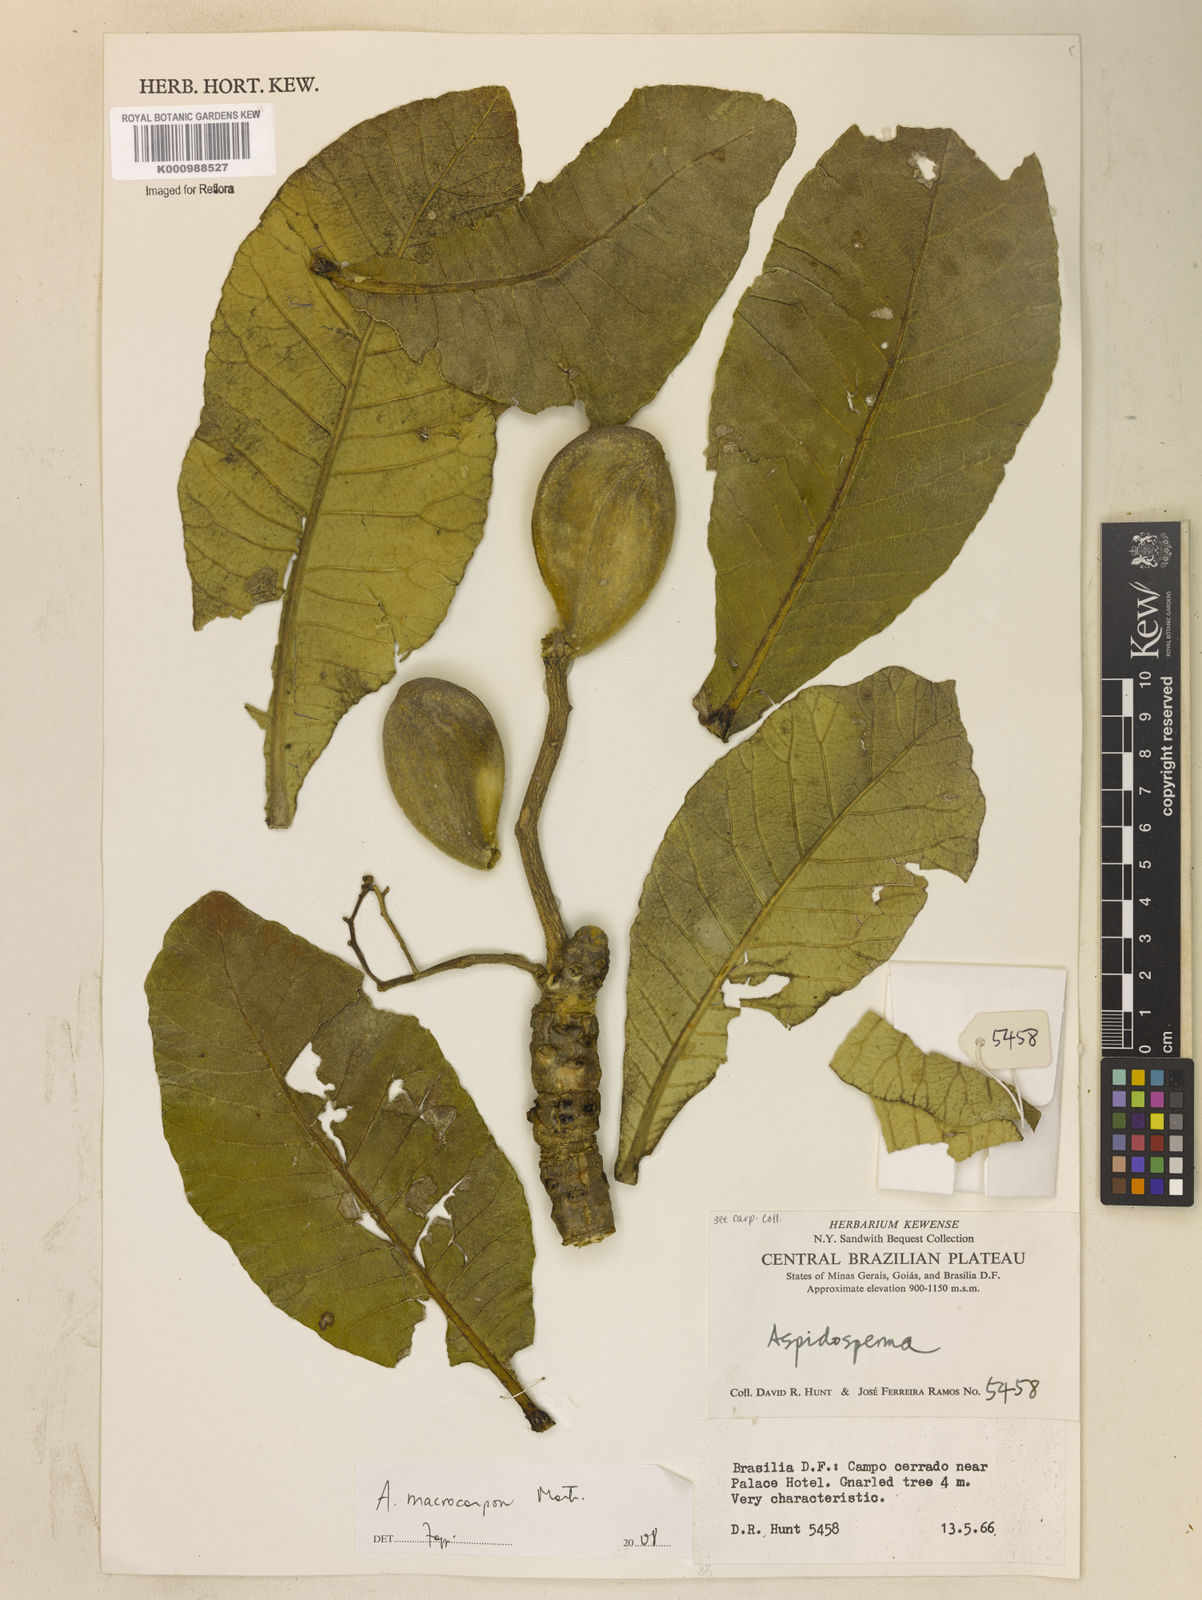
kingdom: Plantae
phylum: Tracheophyta
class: Magnoliopsida
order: Gentianales
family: Apocynaceae
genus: Aspidosperma
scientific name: Aspidosperma macrocarpon
